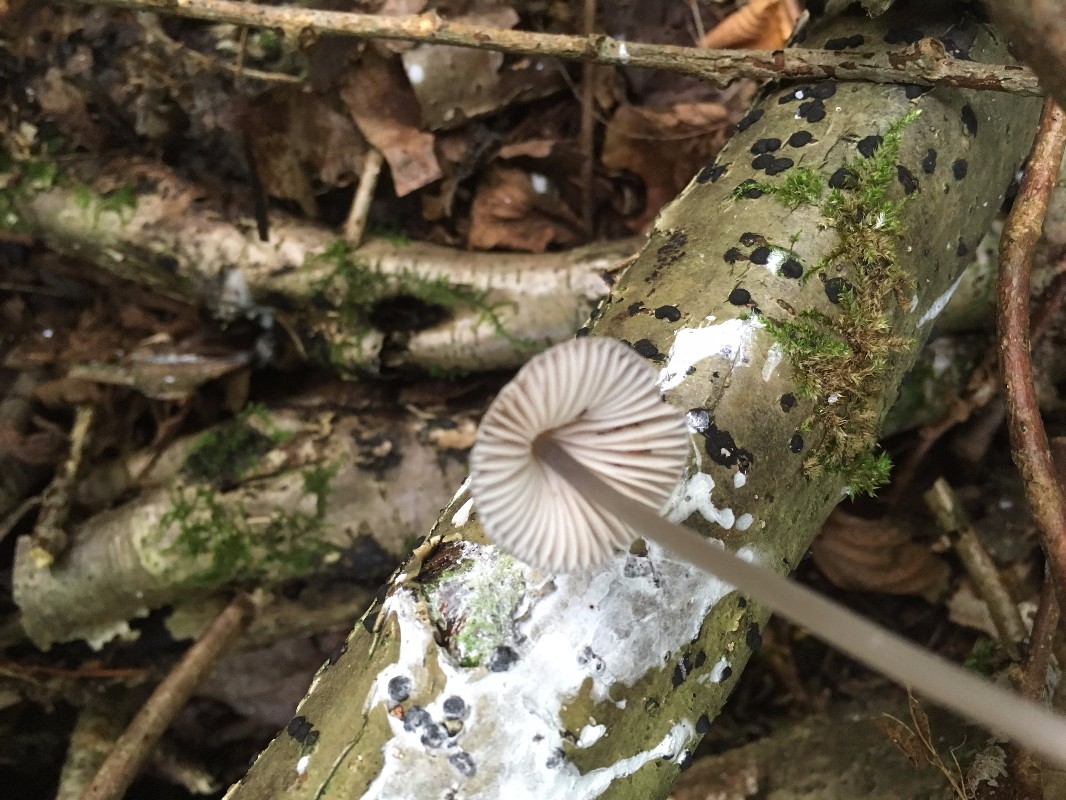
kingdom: Fungi
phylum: Basidiomycota
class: Agaricomycetes
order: Agaricales
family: Mycenaceae
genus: Mycena
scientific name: Mycena polygramma
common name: mangestribet huesvamp
